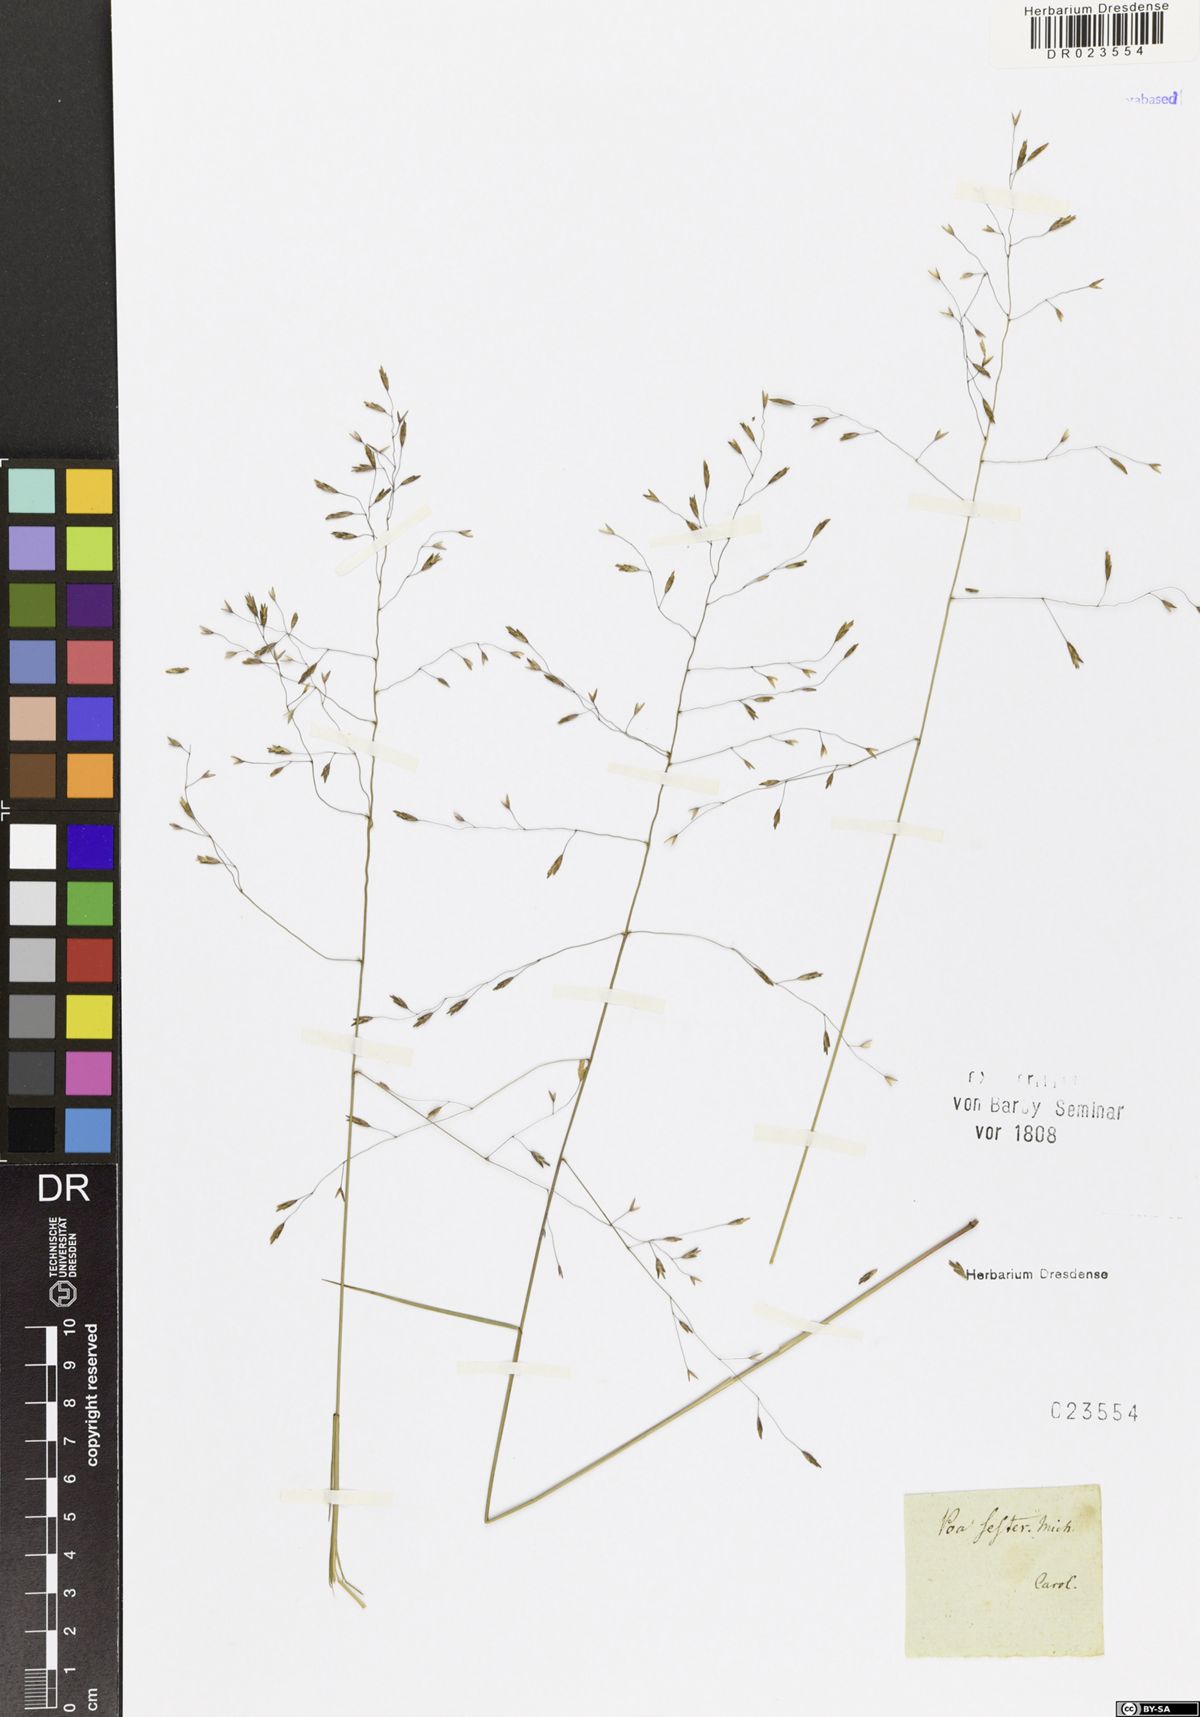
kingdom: Plantae
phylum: Tracheophyta
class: Liliopsida
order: Poales
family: Poaceae
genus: Oreochloa
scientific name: Oreochloa seslerioides
